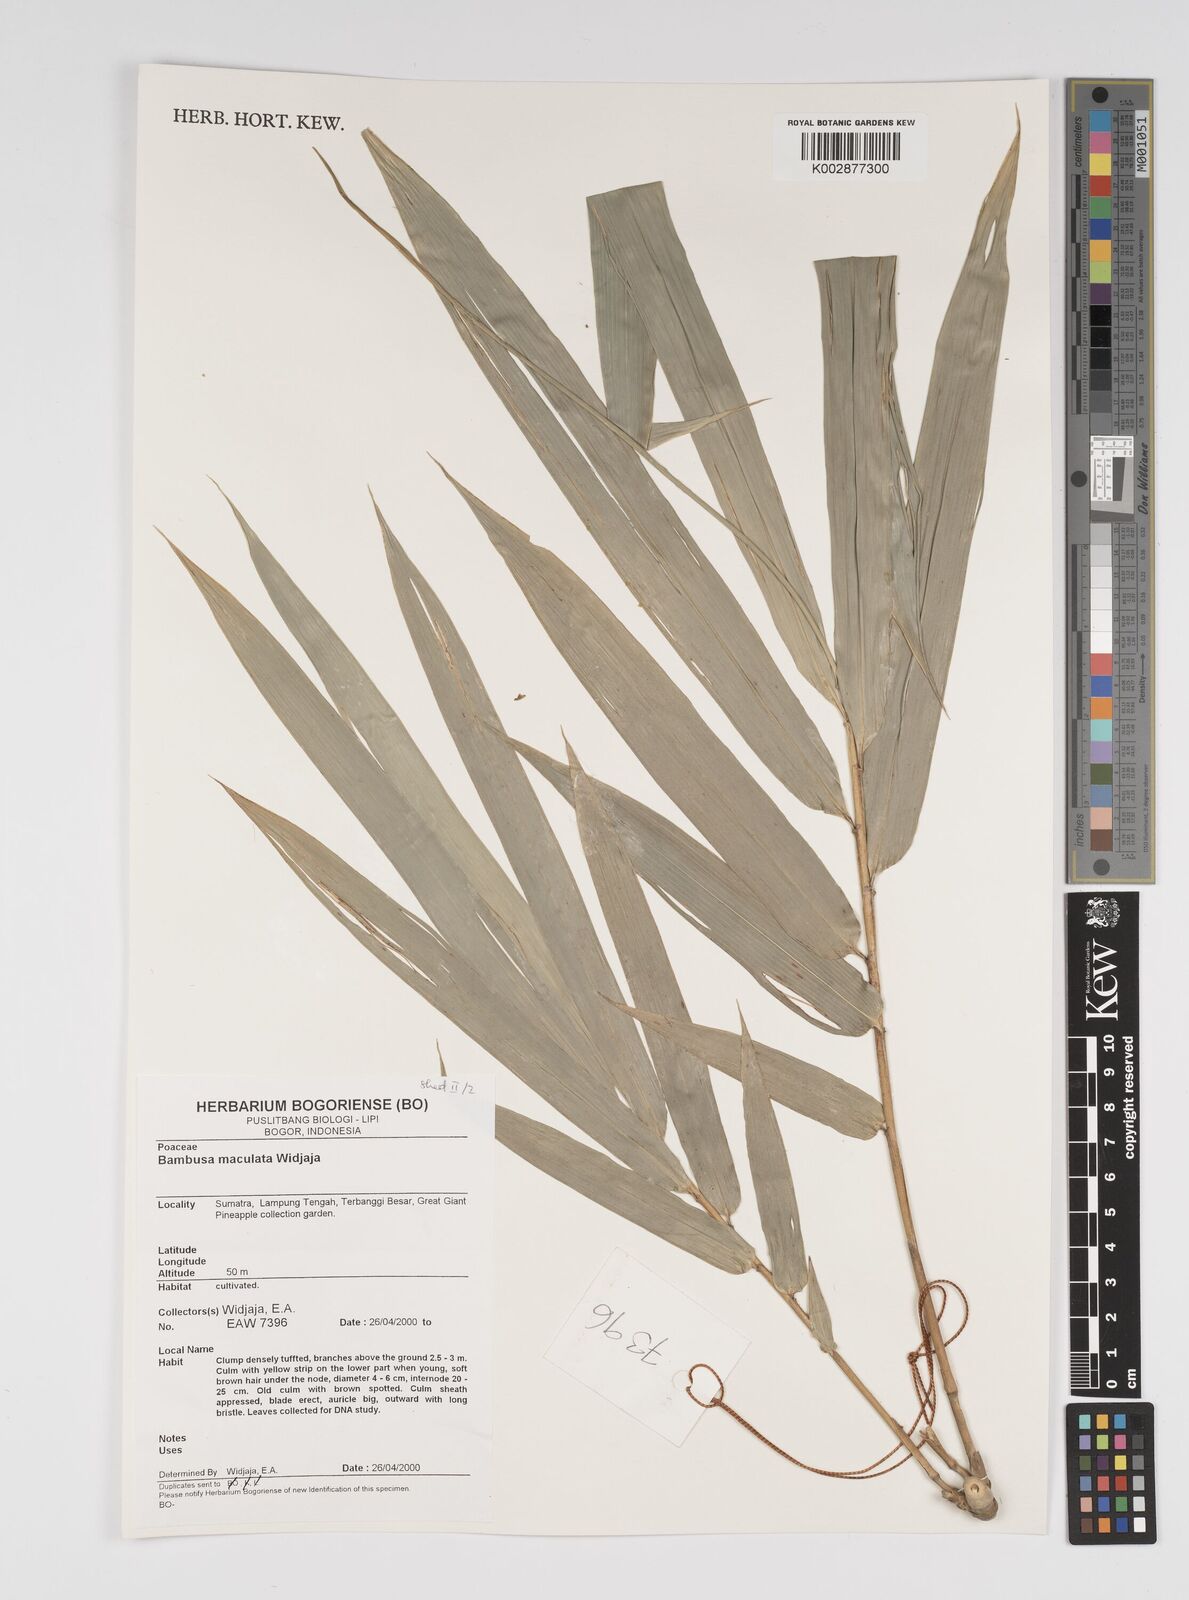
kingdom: Plantae
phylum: Tracheophyta
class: Liliopsida
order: Poales
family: Poaceae
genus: Bambusa
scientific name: Bambusa maculata
